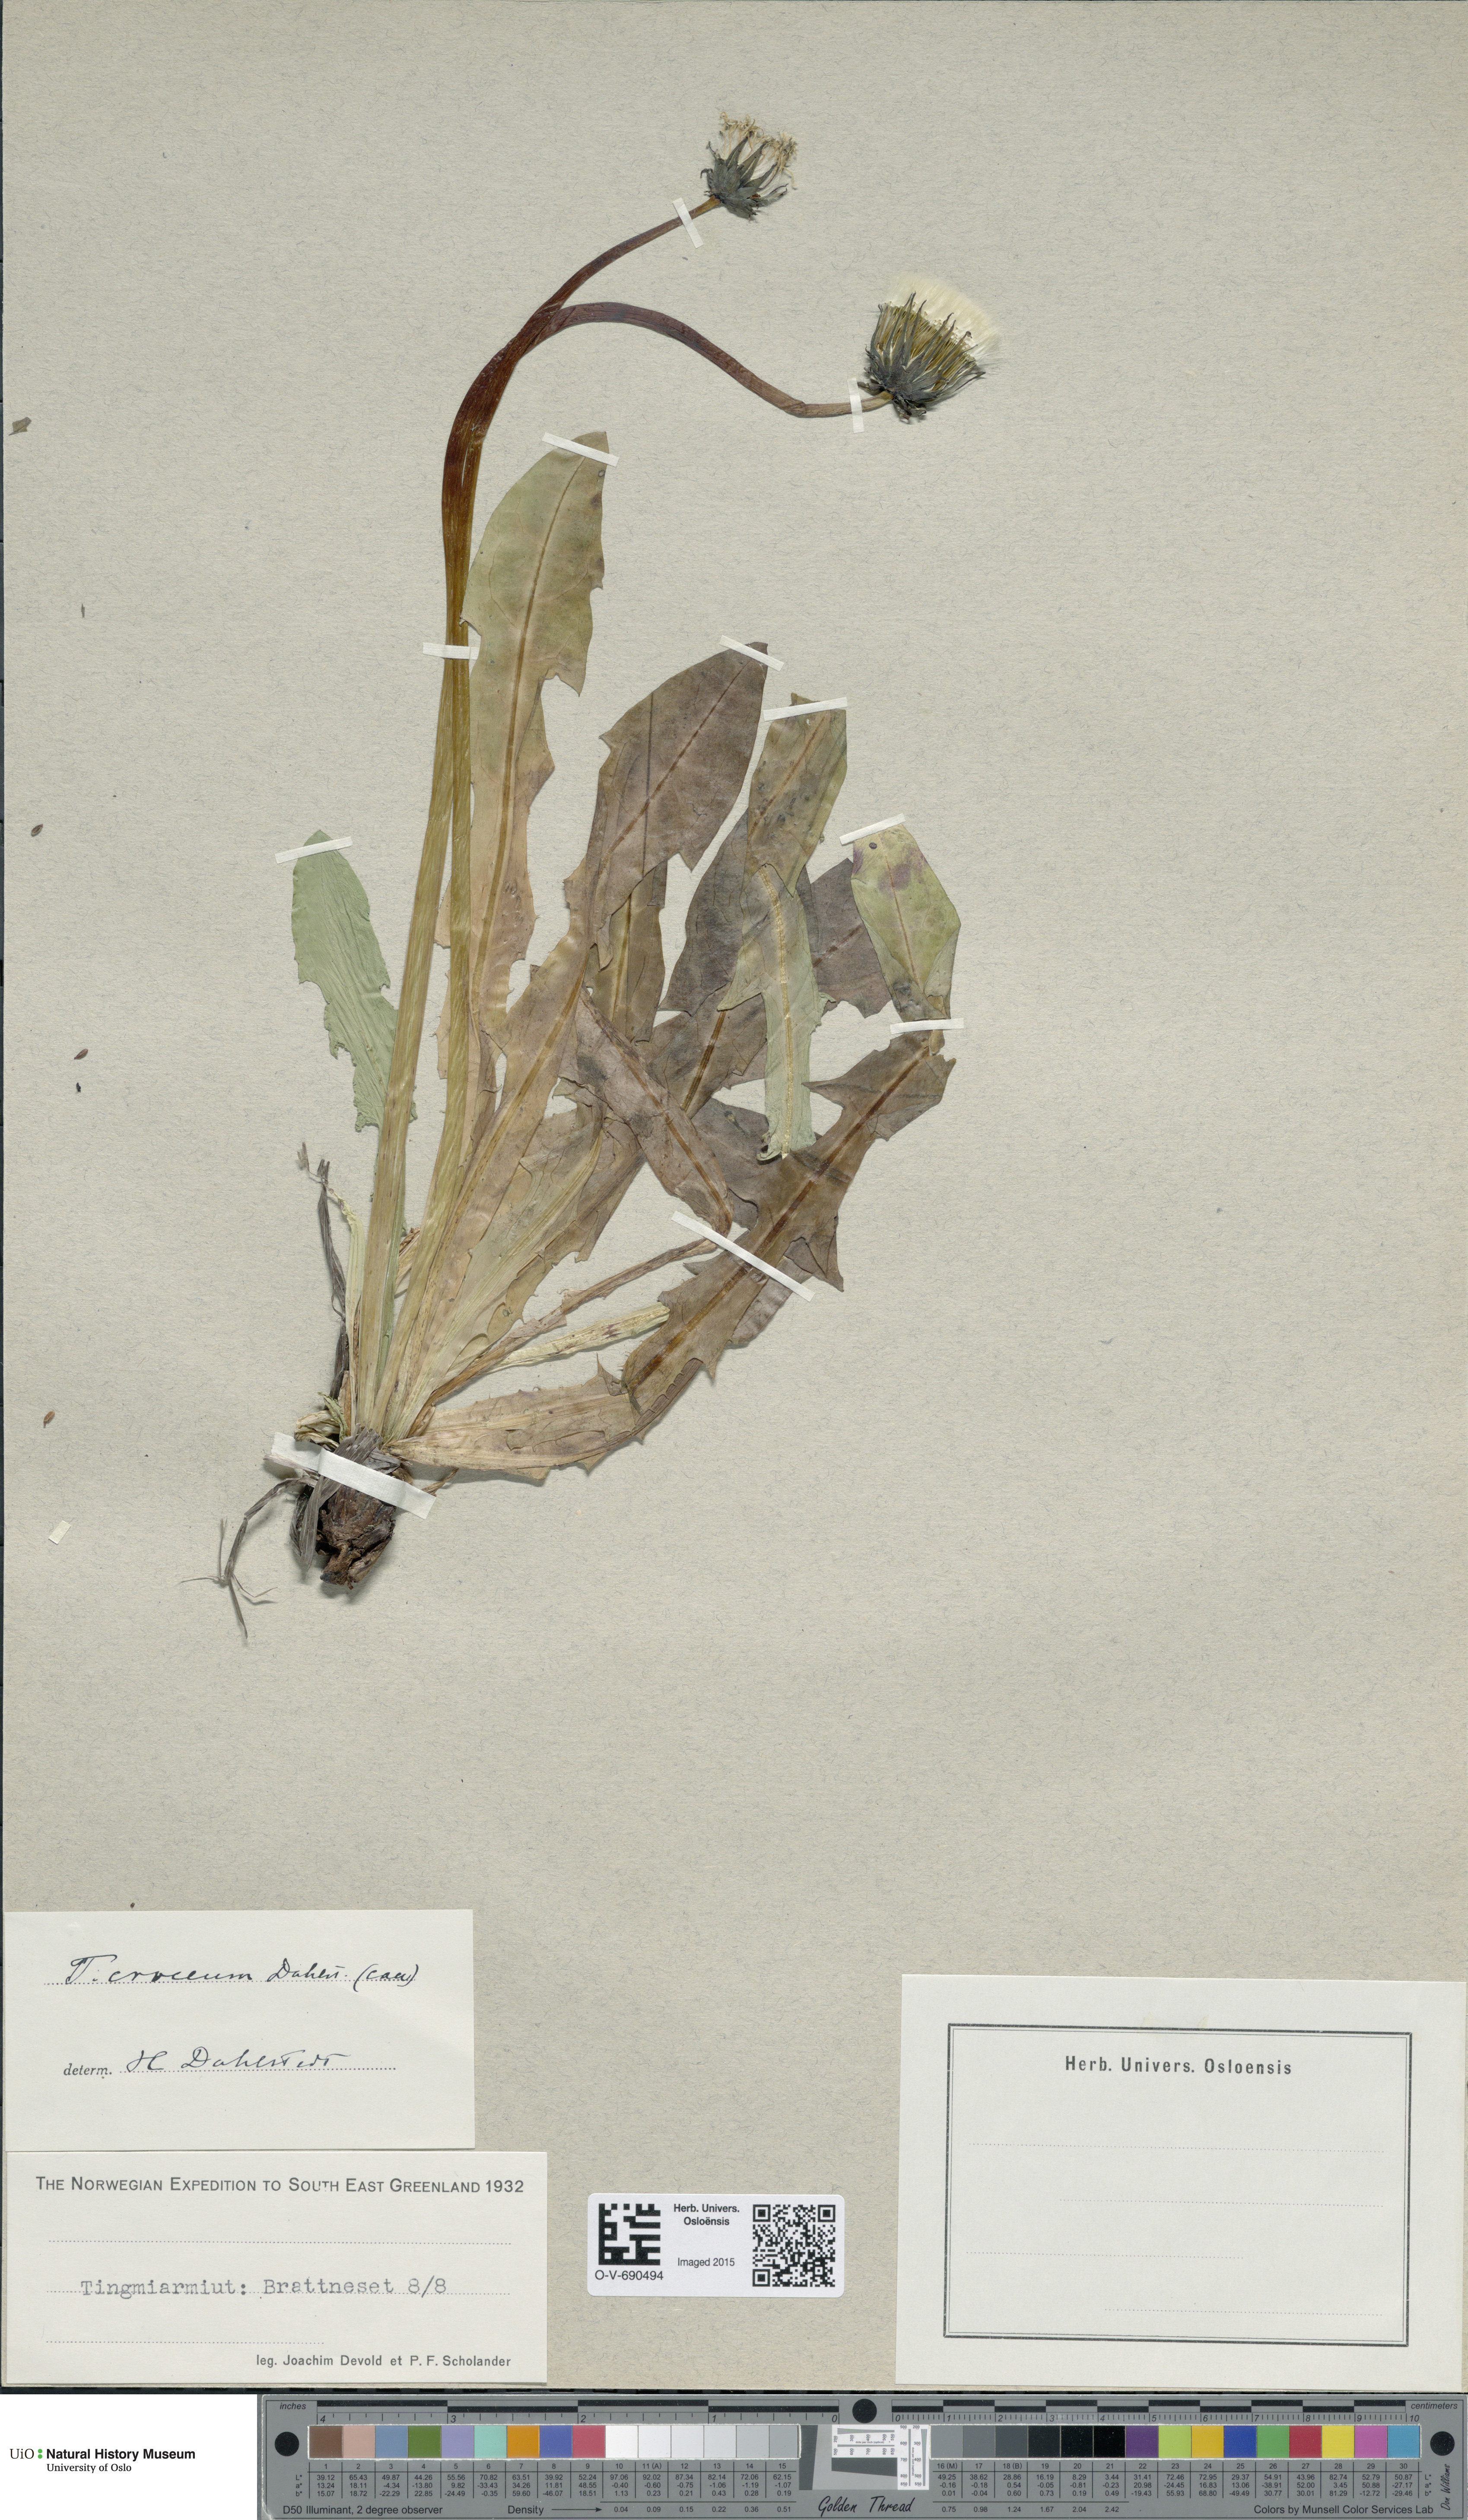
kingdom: Plantae
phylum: Tracheophyta
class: Magnoliopsida
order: Asterales
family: Asteraceae
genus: Taraxacum
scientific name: Taraxacum croceum
